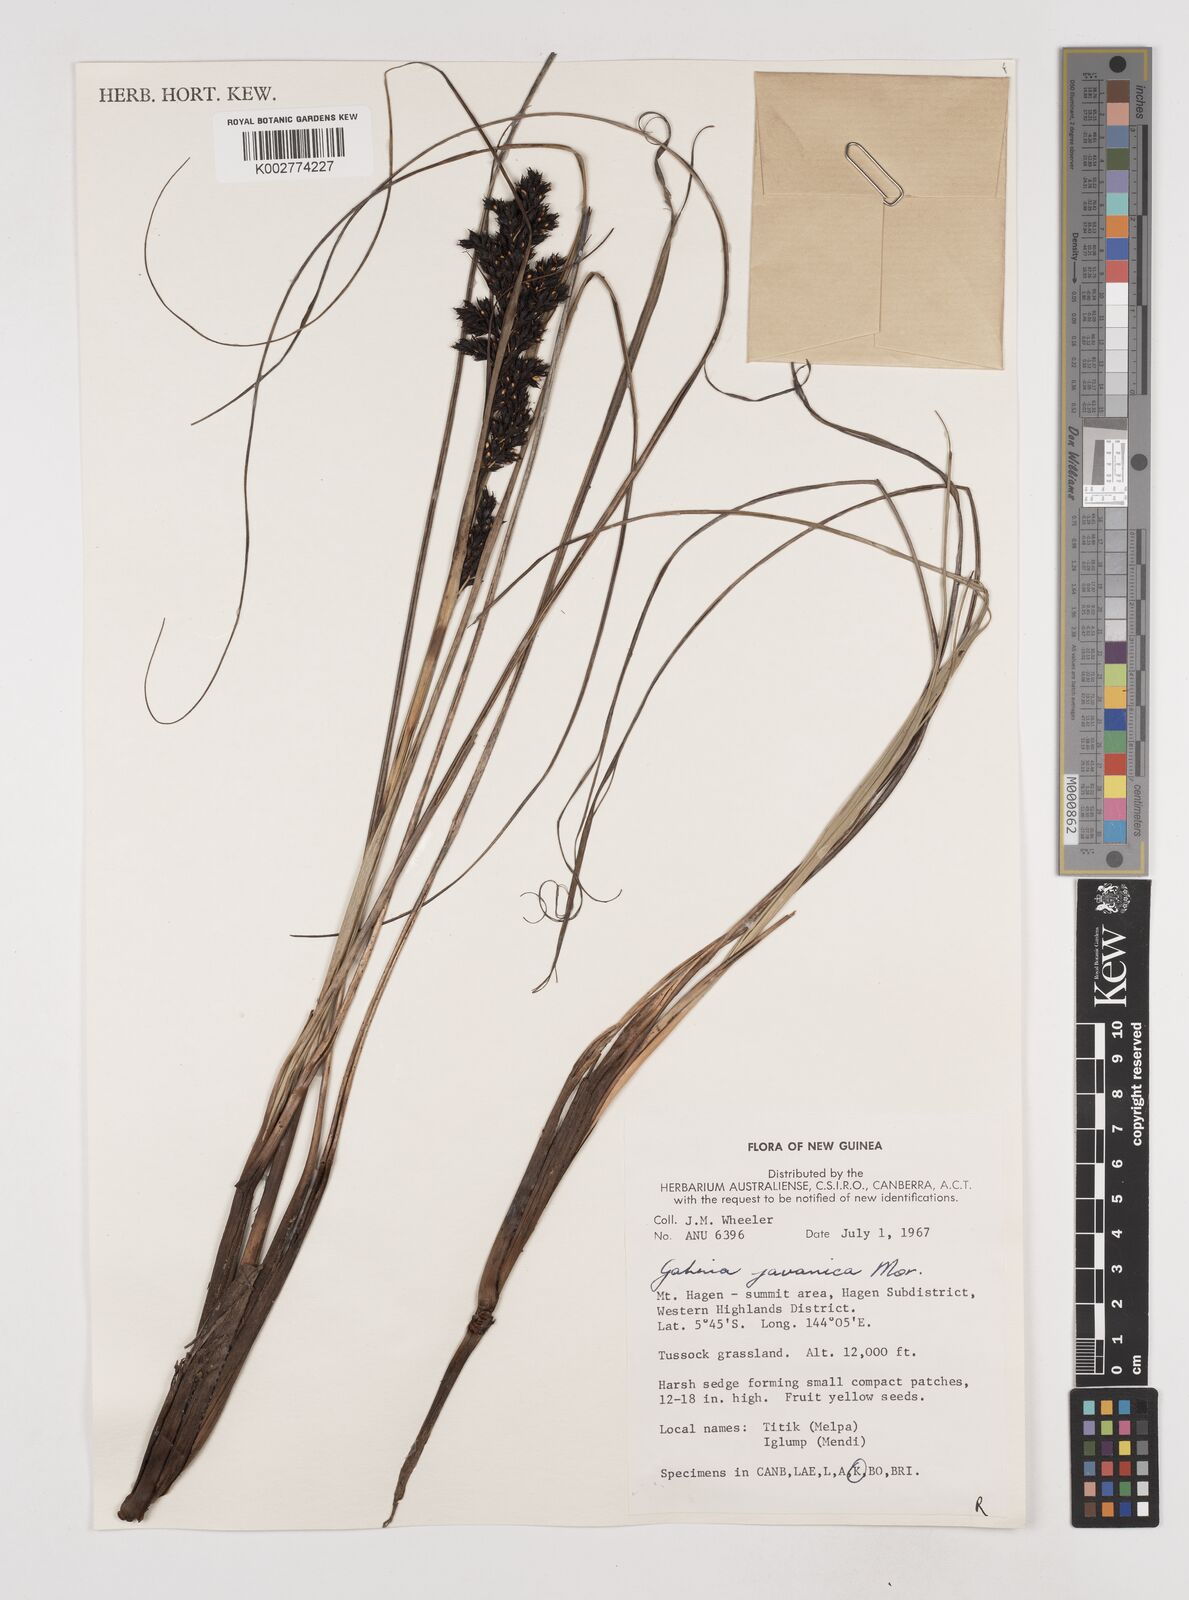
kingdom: Plantae
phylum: Tracheophyta
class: Liliopsida
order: Poales
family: Cyperaceae
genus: Gahnia
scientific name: Gahnia javanica
